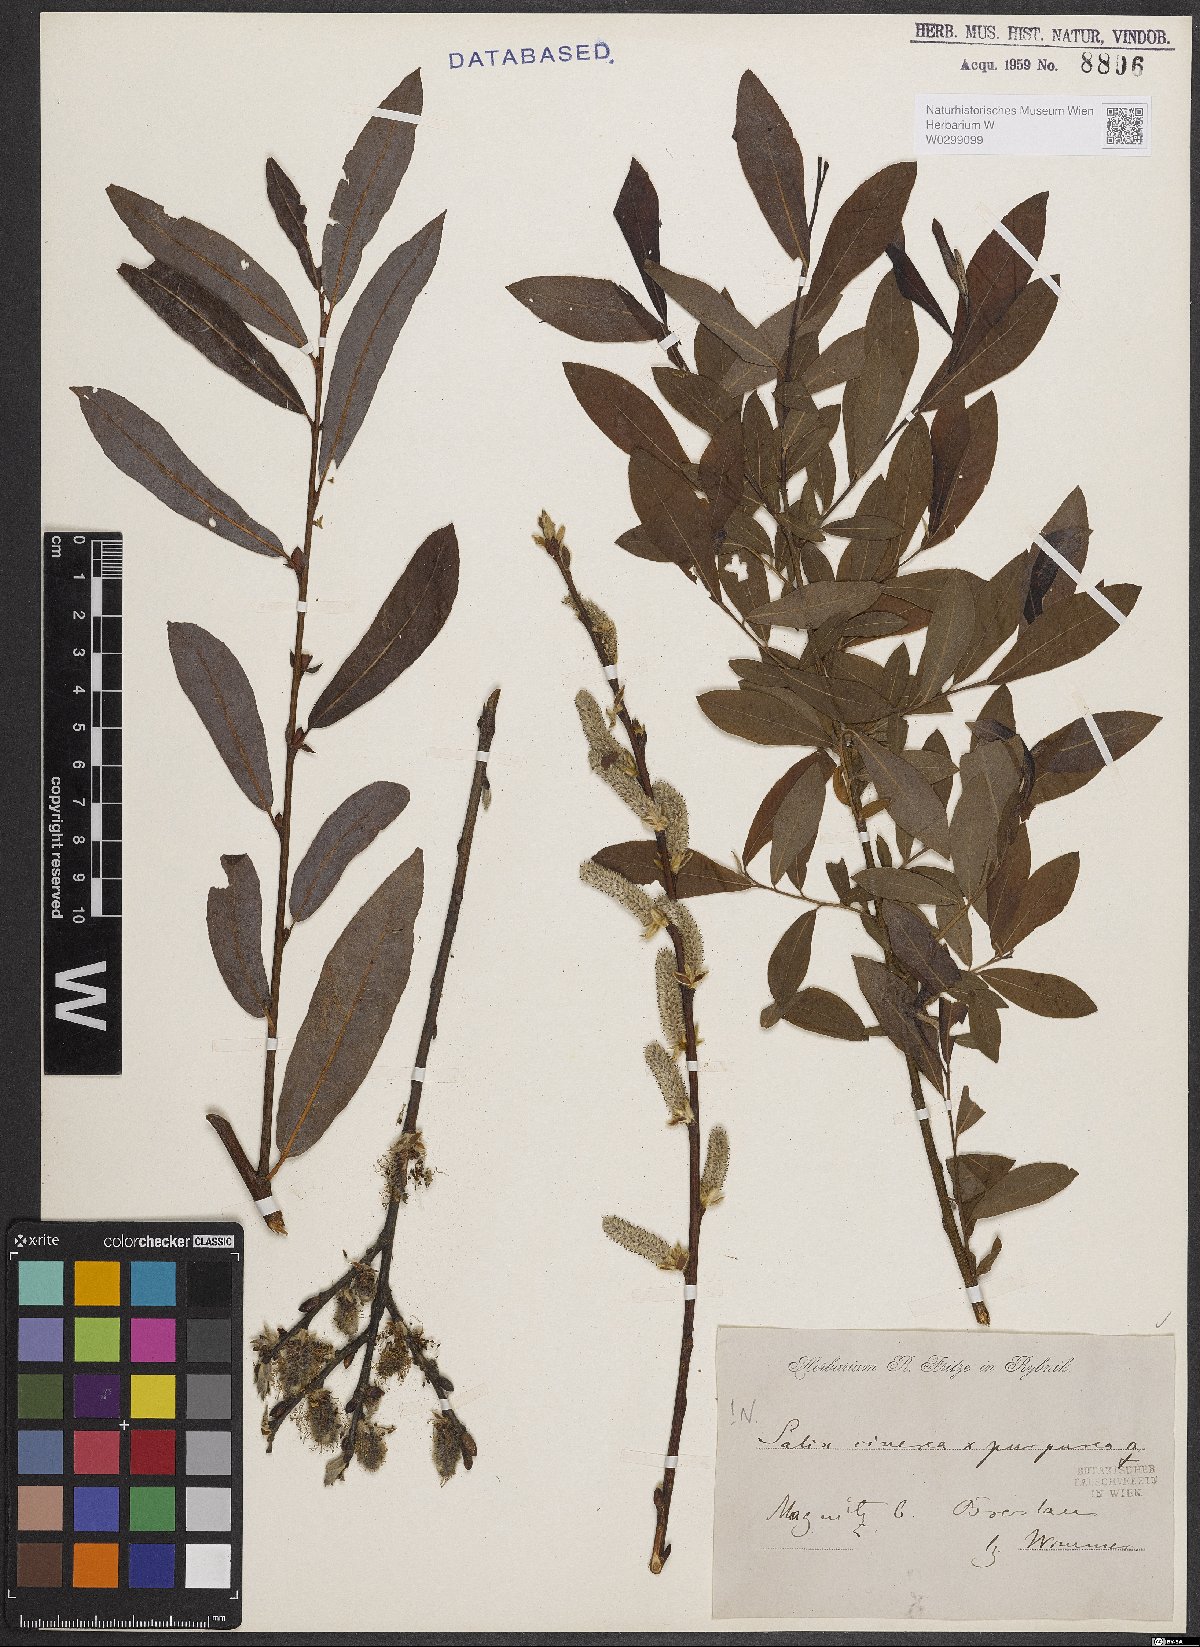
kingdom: Plantae
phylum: Tracheophyta
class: Magnoliopsida
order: Malpighiales
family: Salicaceae
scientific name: Salicaceae
